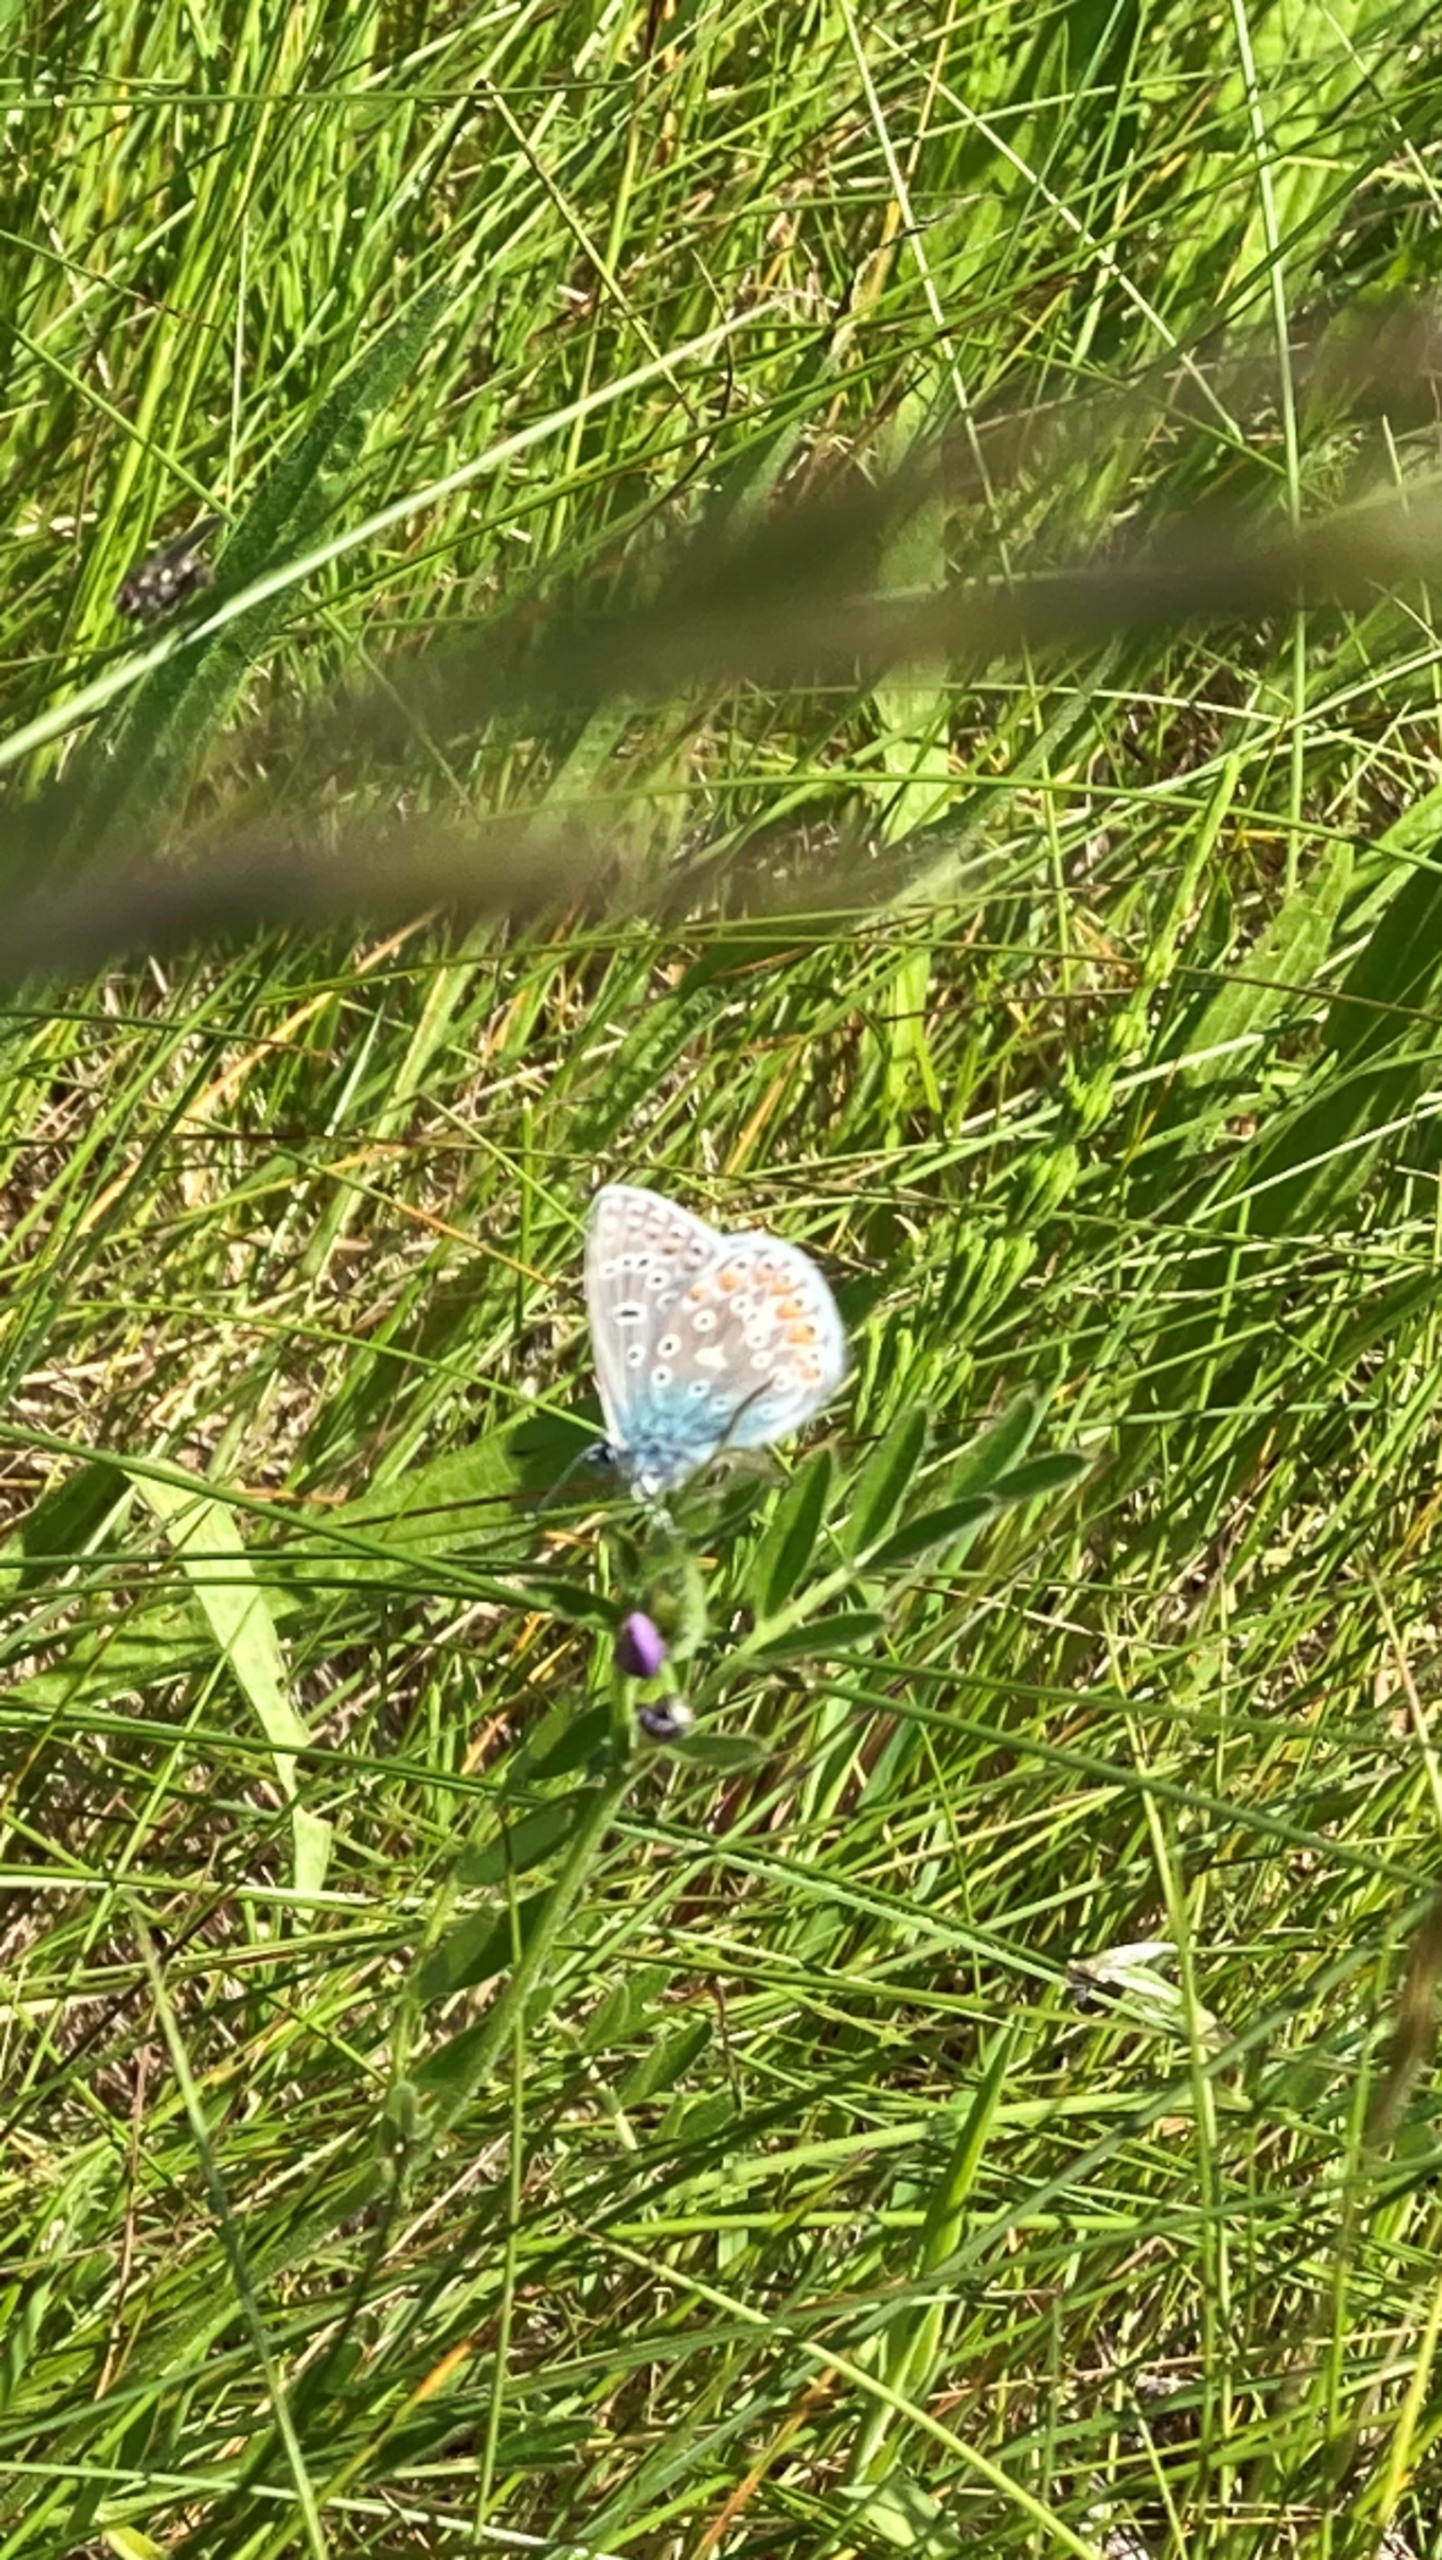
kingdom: Animalia
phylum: Arthropoda
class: Insecta
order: Lepidoptera
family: Lycaenidae
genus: Polyommatus
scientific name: Polyommatus icarus
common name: Almindelig blåfugl
